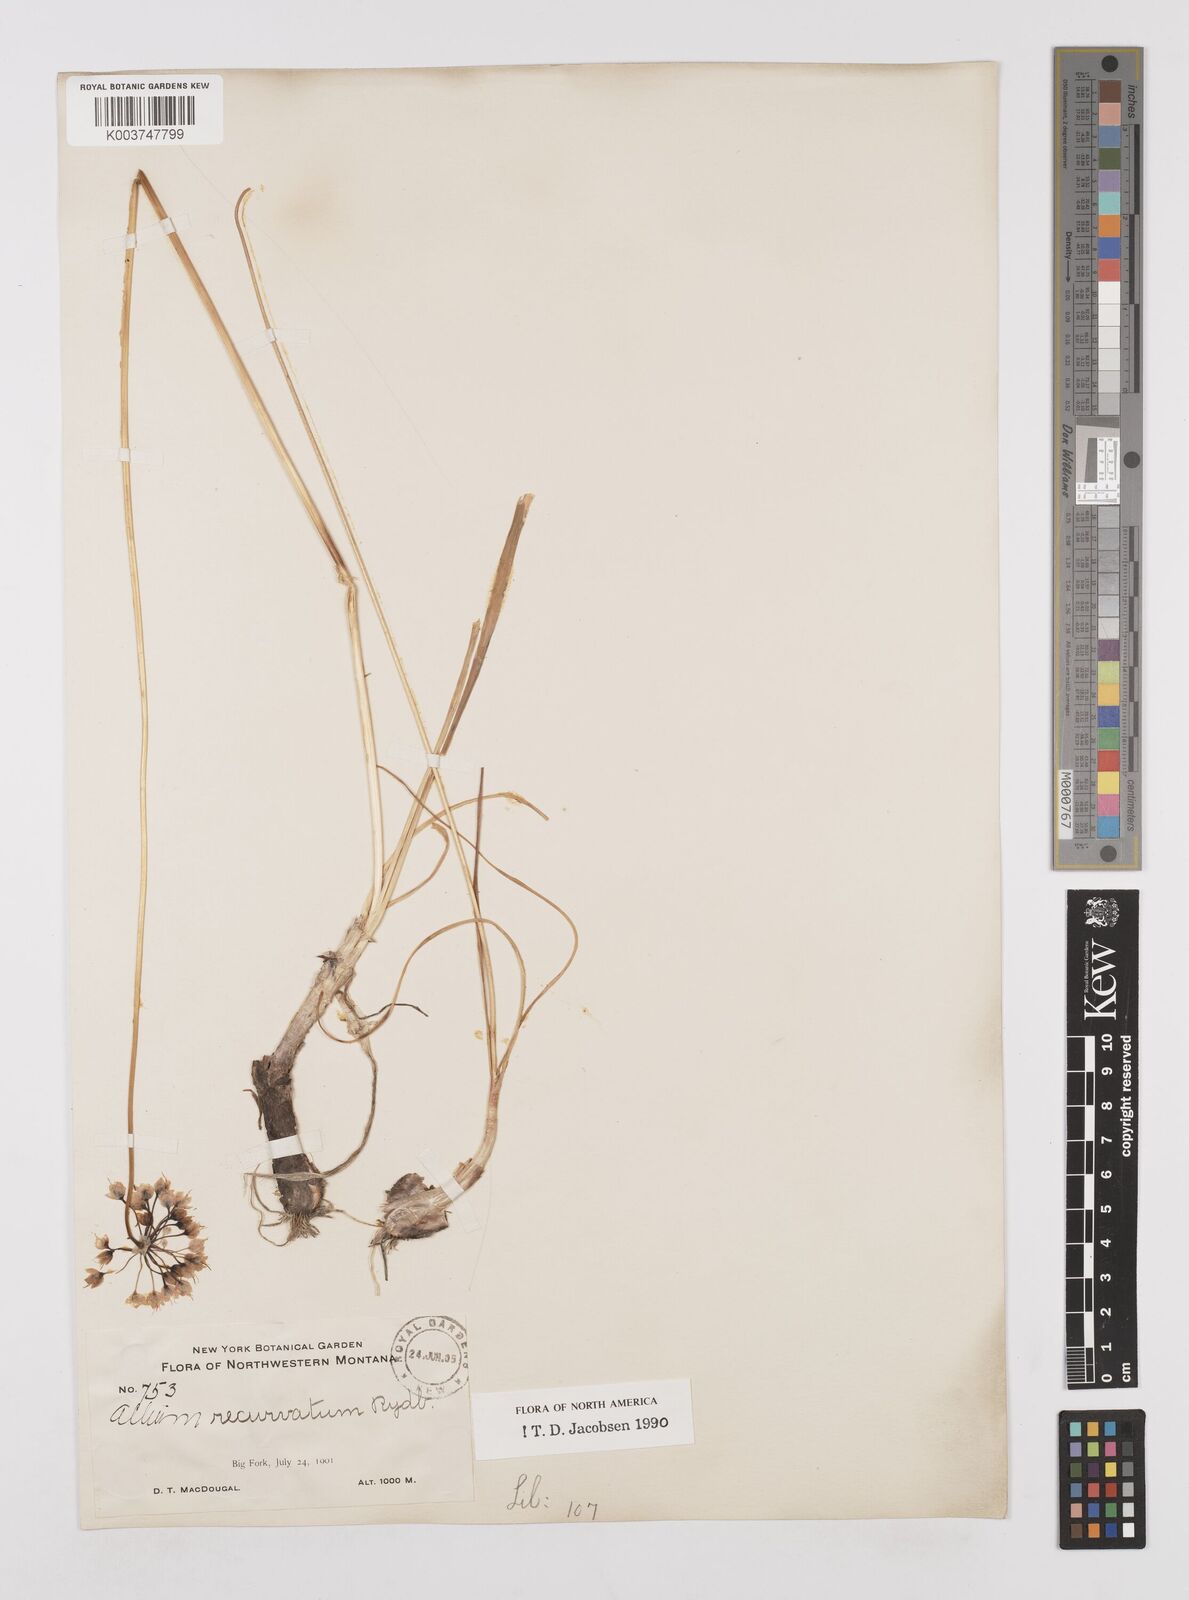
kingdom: Plantae
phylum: Tracheophyta
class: Liliopsida
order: Asparagales
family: Amaryllidaceae
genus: Allium
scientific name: Allium cernuum
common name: Nodding onion
